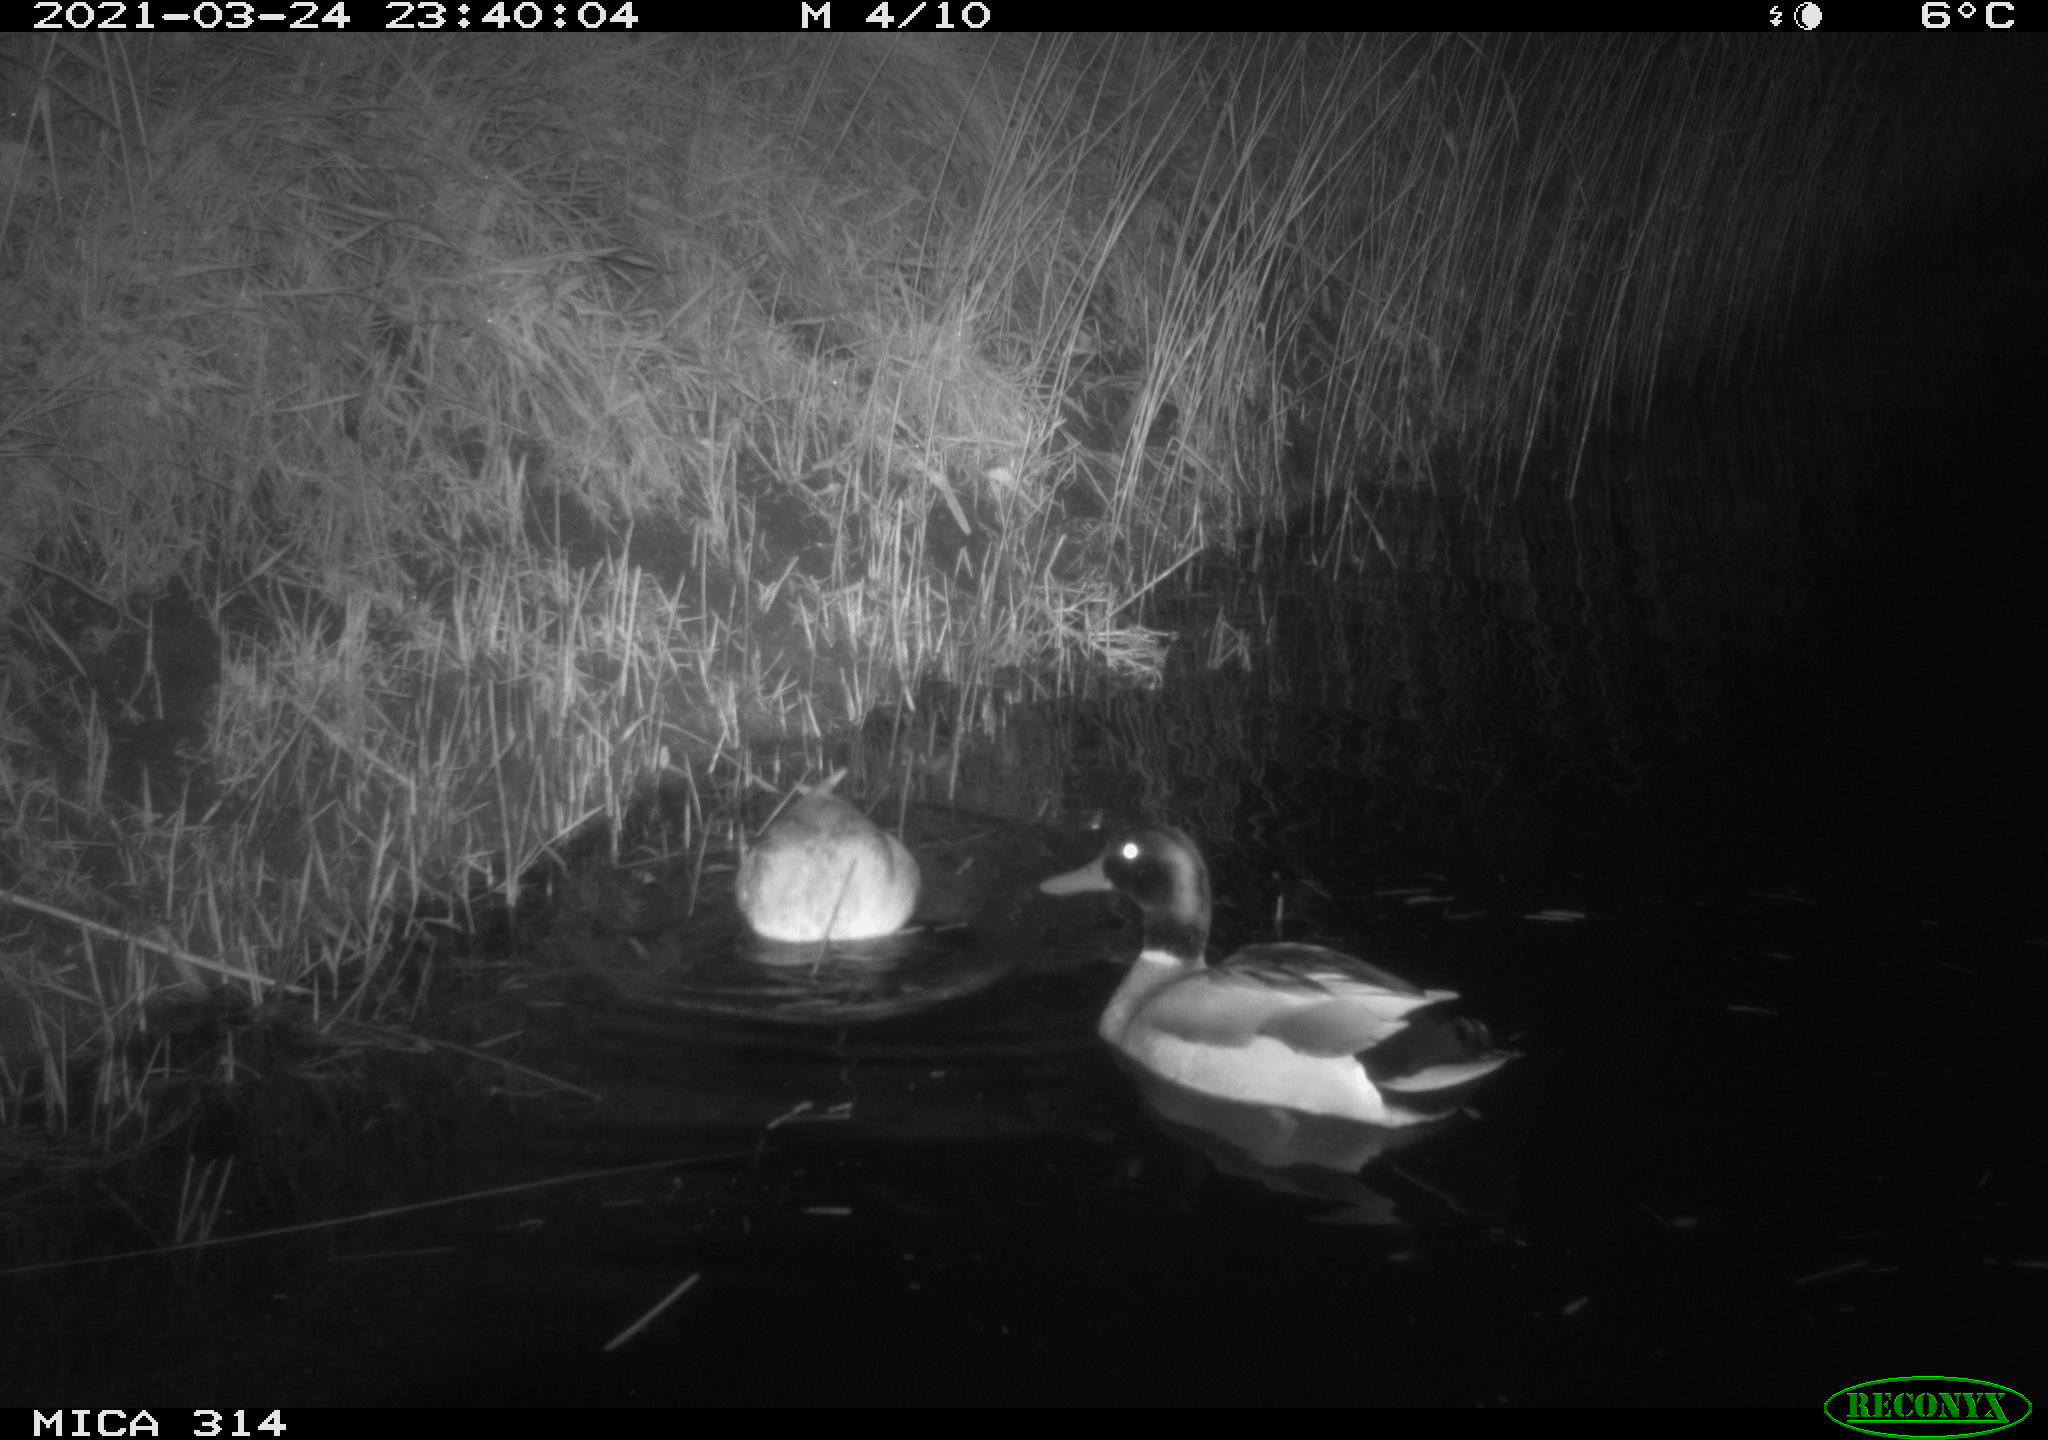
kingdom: Animalia
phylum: Chordata
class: Aves
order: Anseriformes
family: Anatidae
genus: Anas
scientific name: Anas platyrhynchos
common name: Mallard
